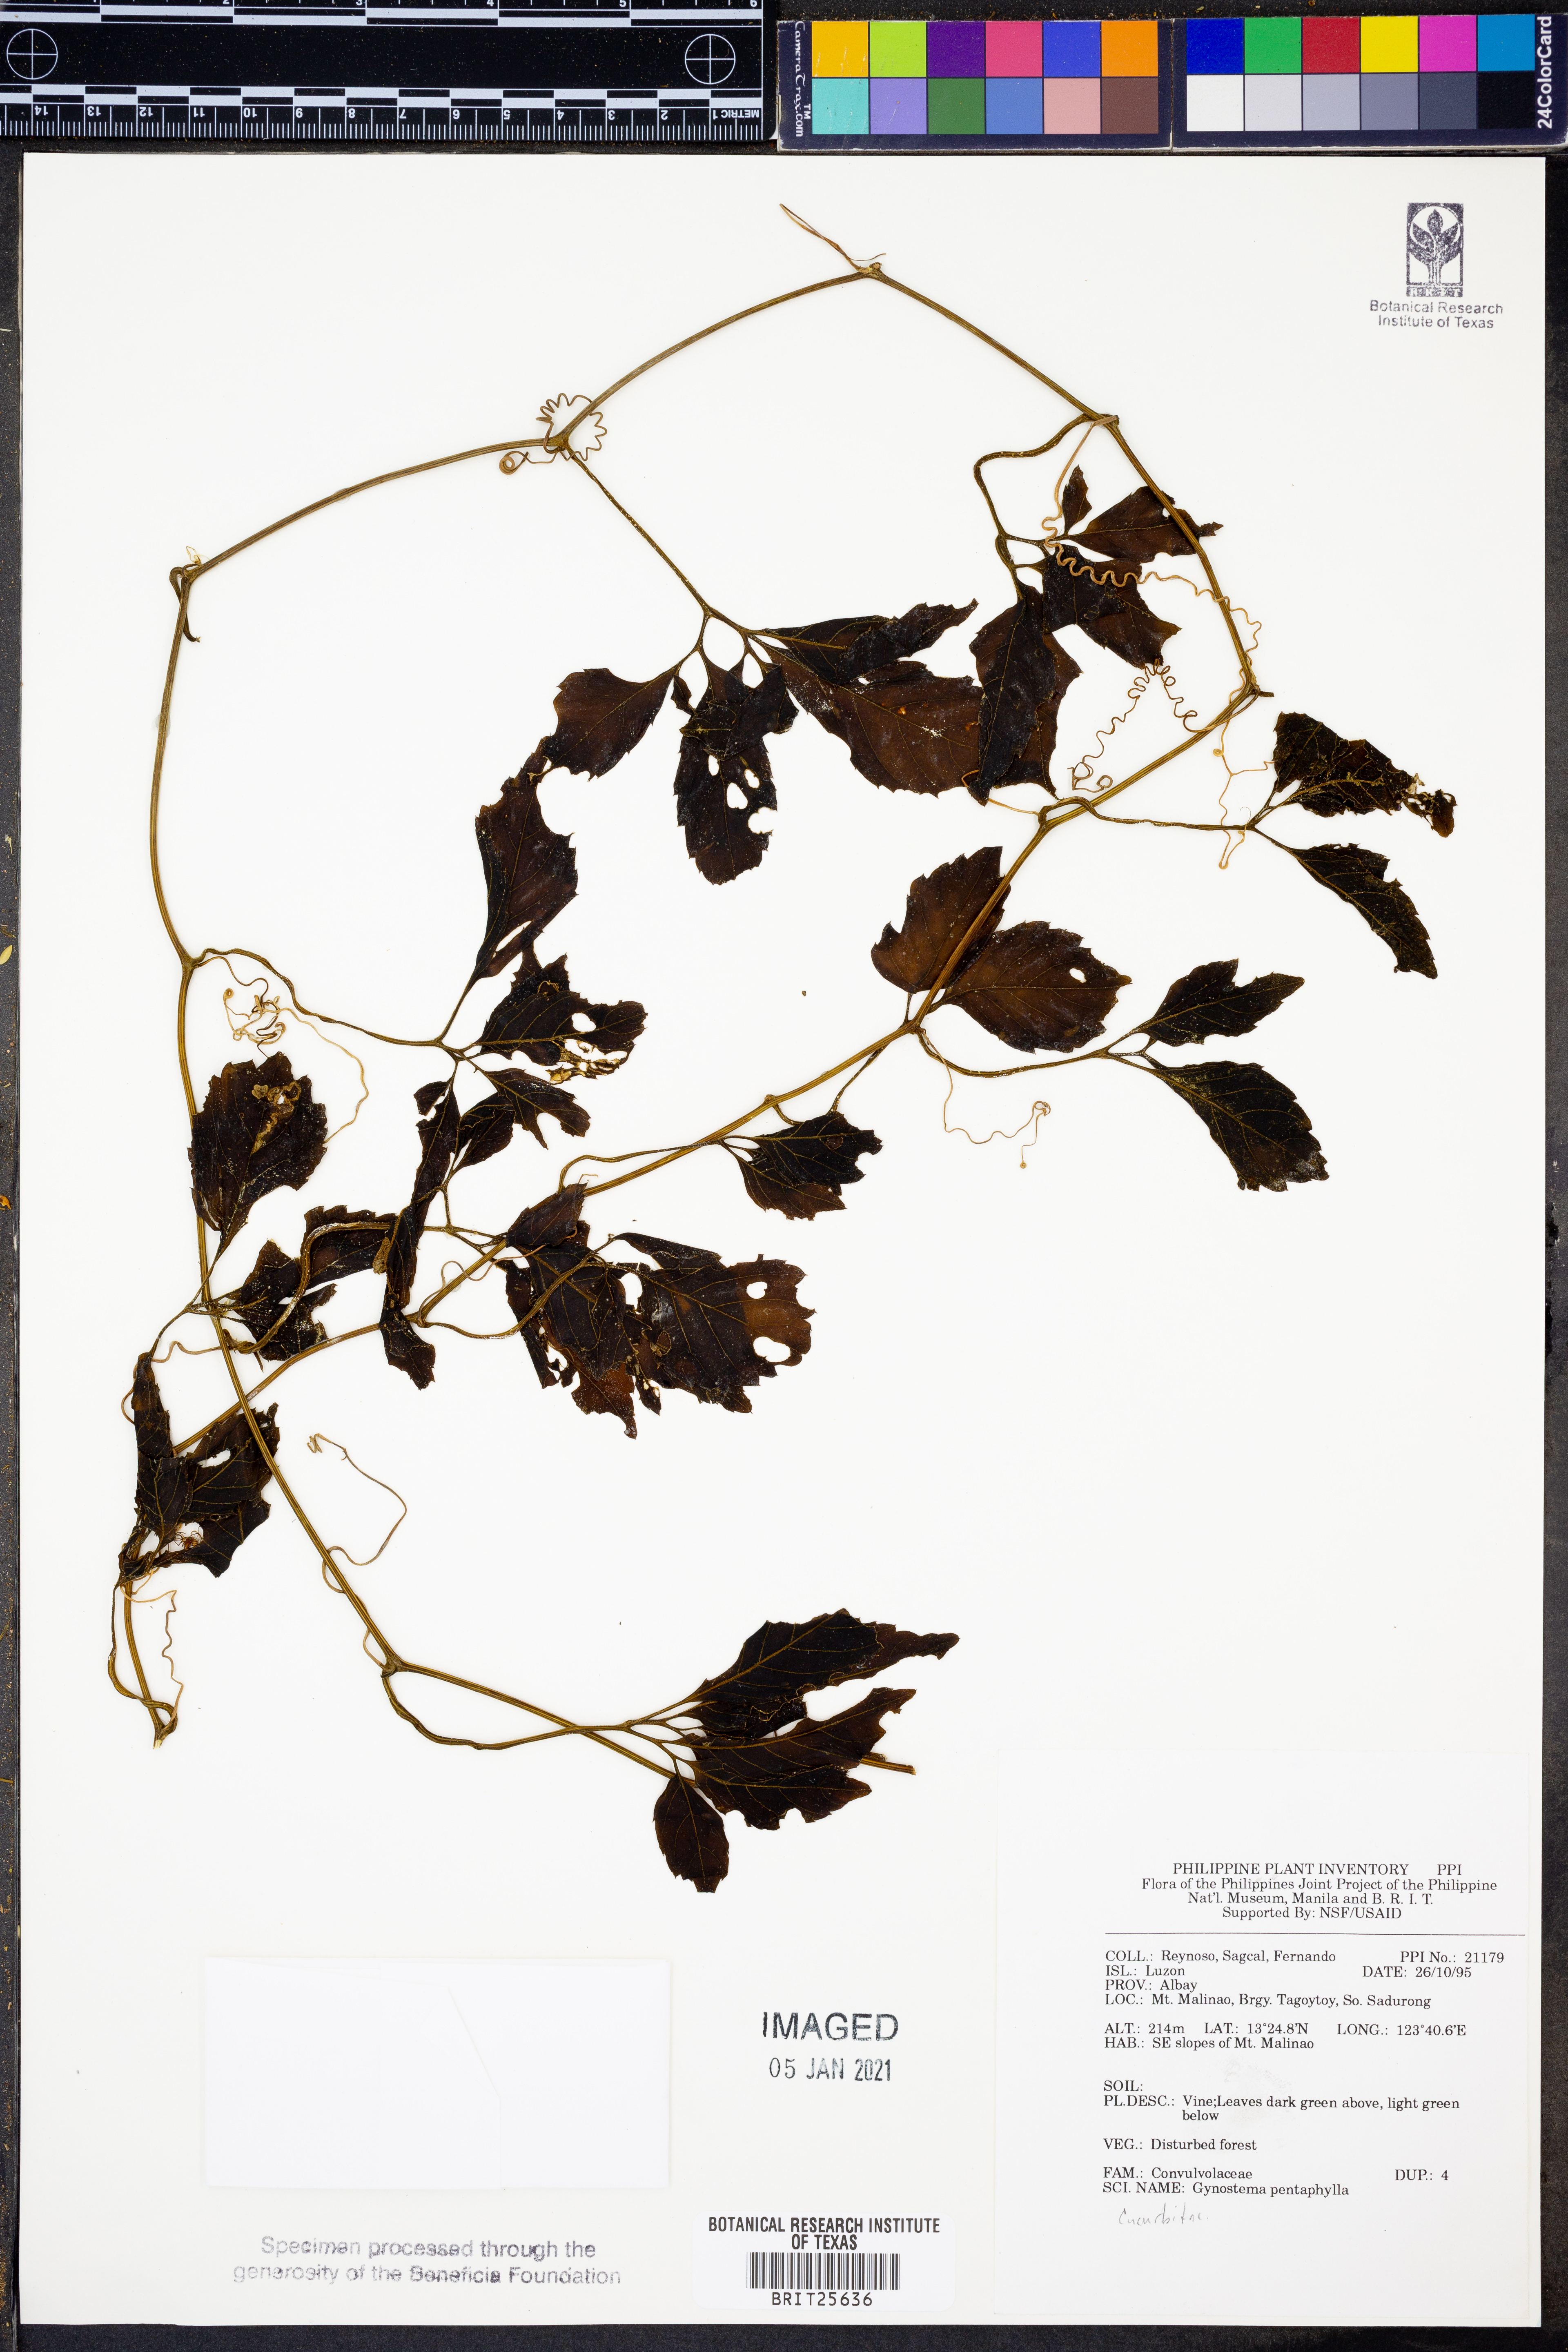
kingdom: Plantae
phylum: Tracheophyta
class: Magnoliopsida
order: Solanales
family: Convolvulaceae
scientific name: Convolvulaceae
